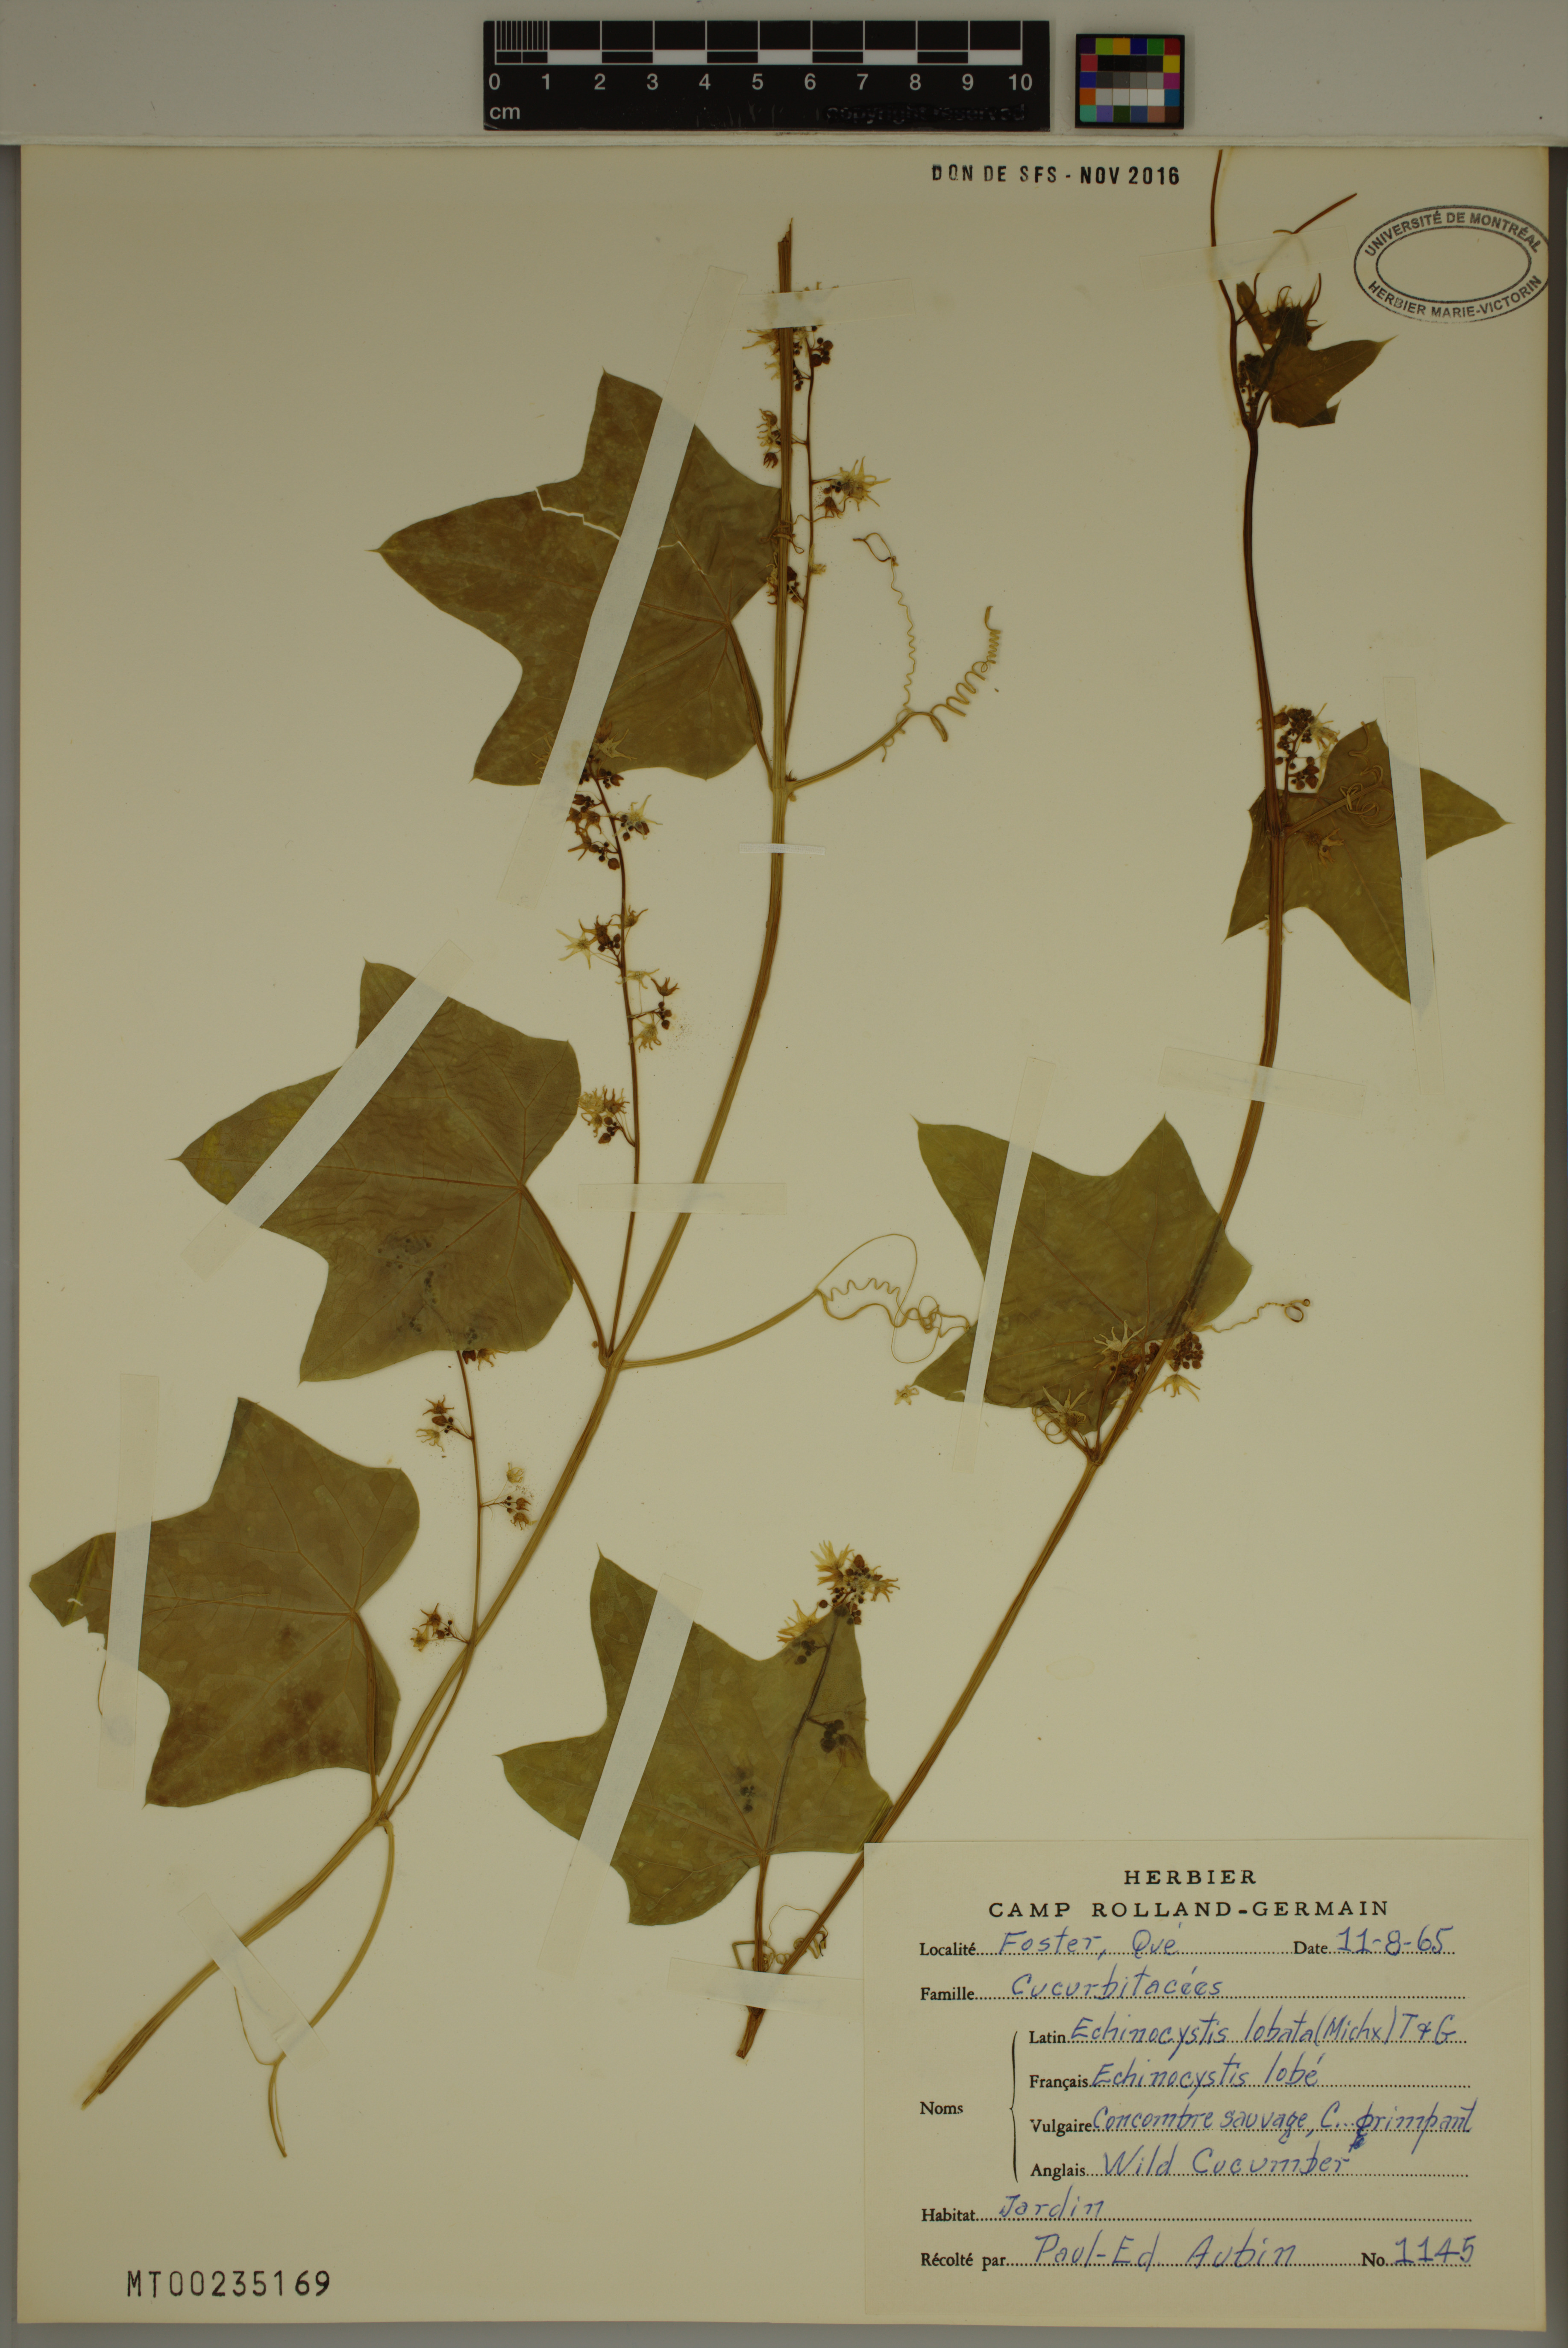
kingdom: Plantae
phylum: Tracheophyta
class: Magnoliopsida
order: Cucurbitales
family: Cucurbitaceae
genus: Echinocystis
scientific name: Echinocystis lobata
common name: Wild cucumber
